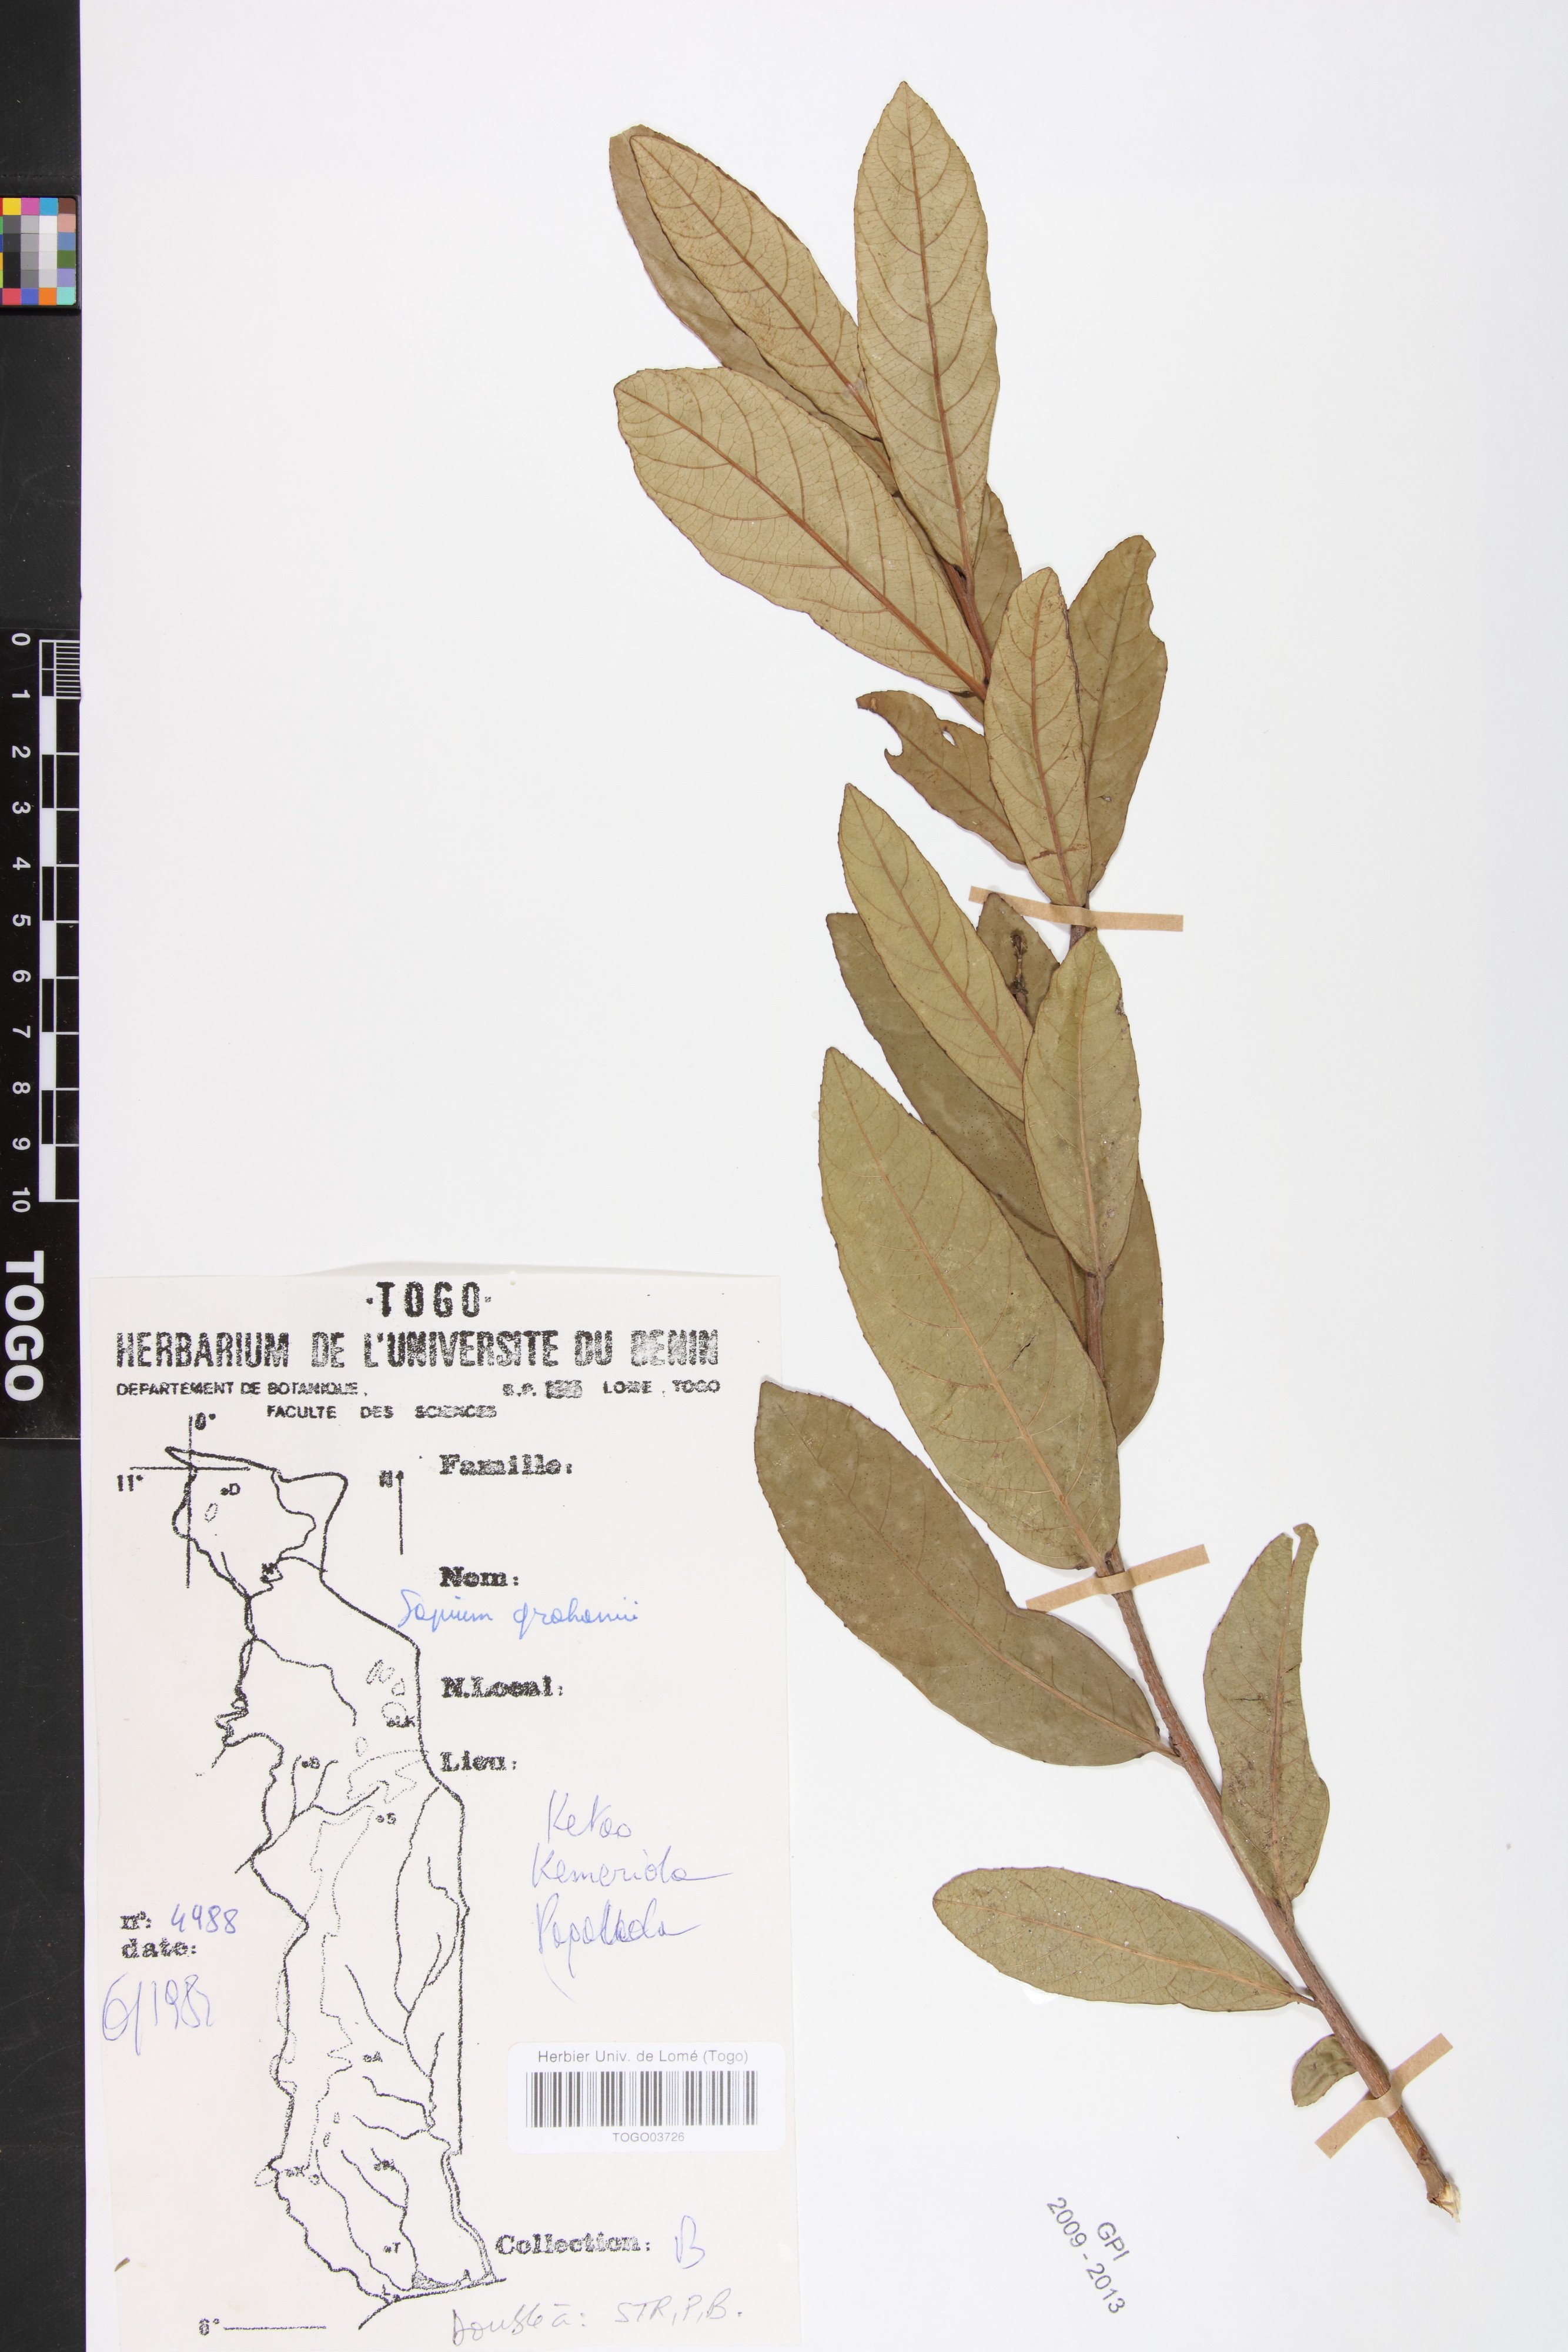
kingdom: Plantae
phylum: Tracheophyta
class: Magnoliopsida
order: Malpighiales
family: Euphorbiaceae
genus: Excoecaria
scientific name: Excoecaria grahamii
